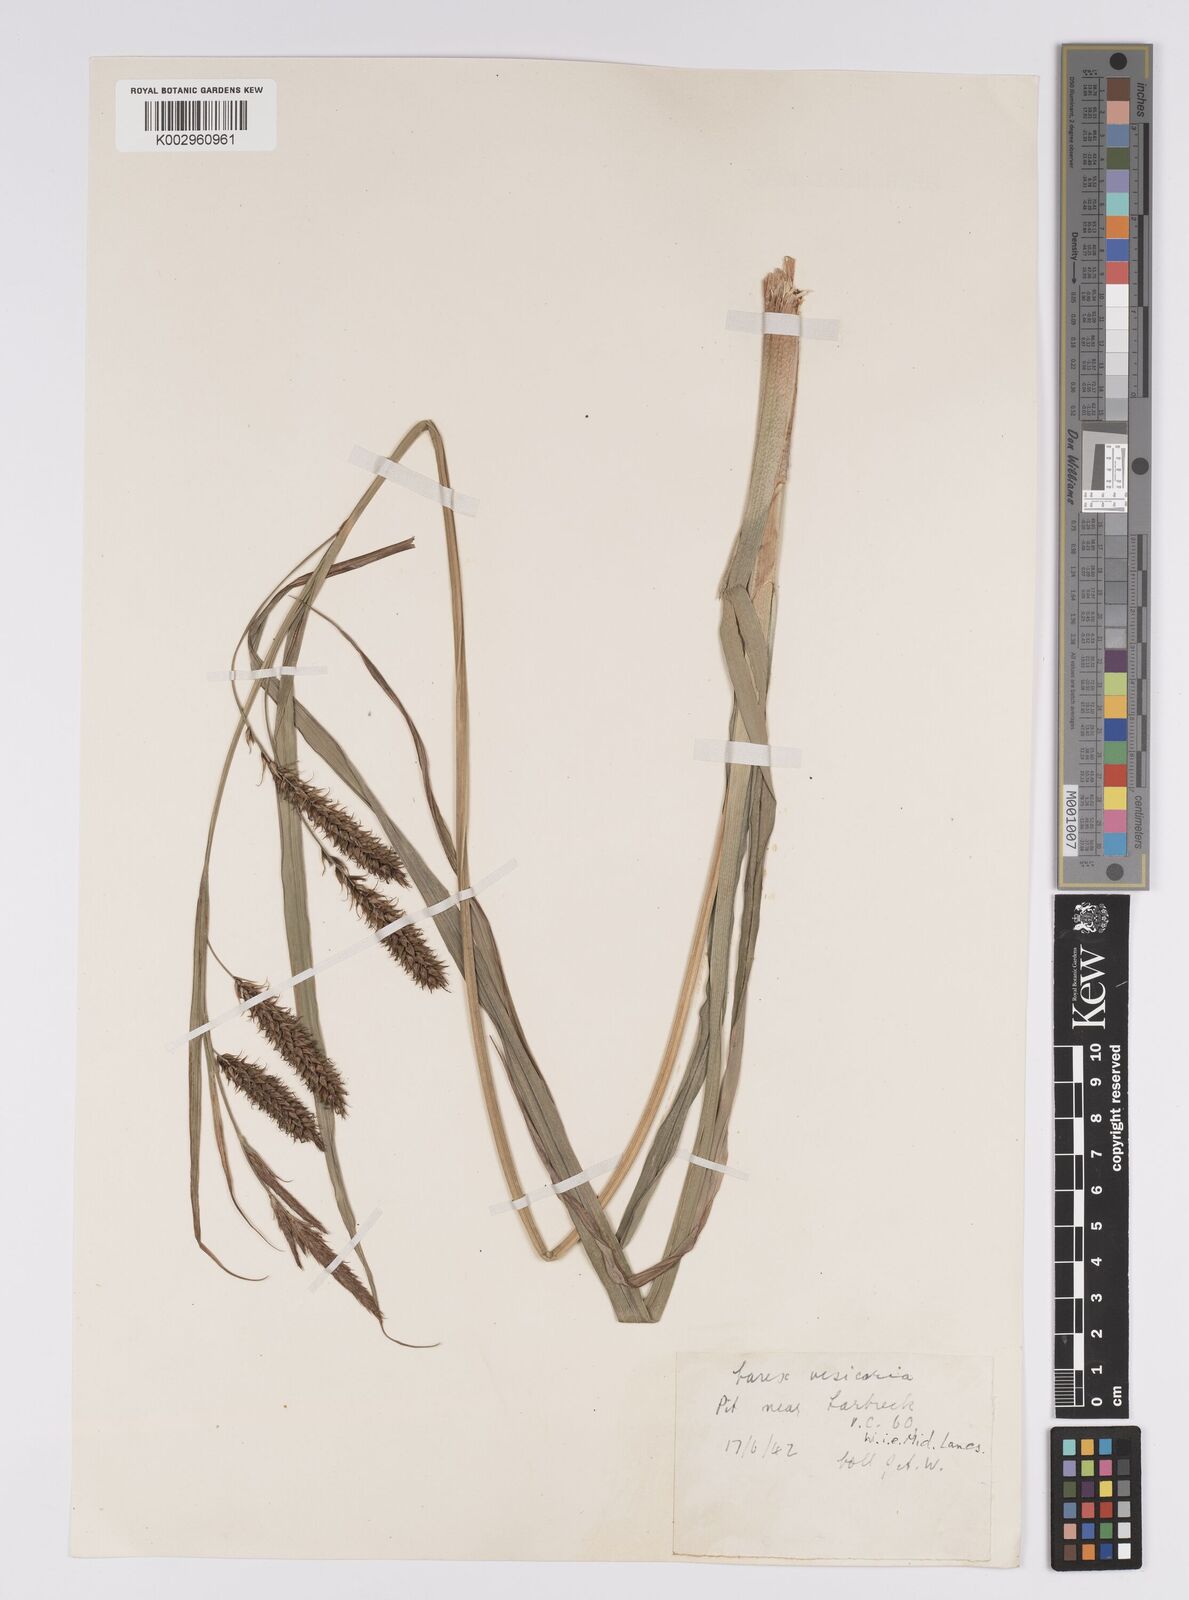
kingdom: Plantae
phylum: Tracheophyta
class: Liliopsida
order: Poales
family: Cyperaceae
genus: Carex
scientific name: Carex riparia
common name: Greater pond-sedge
